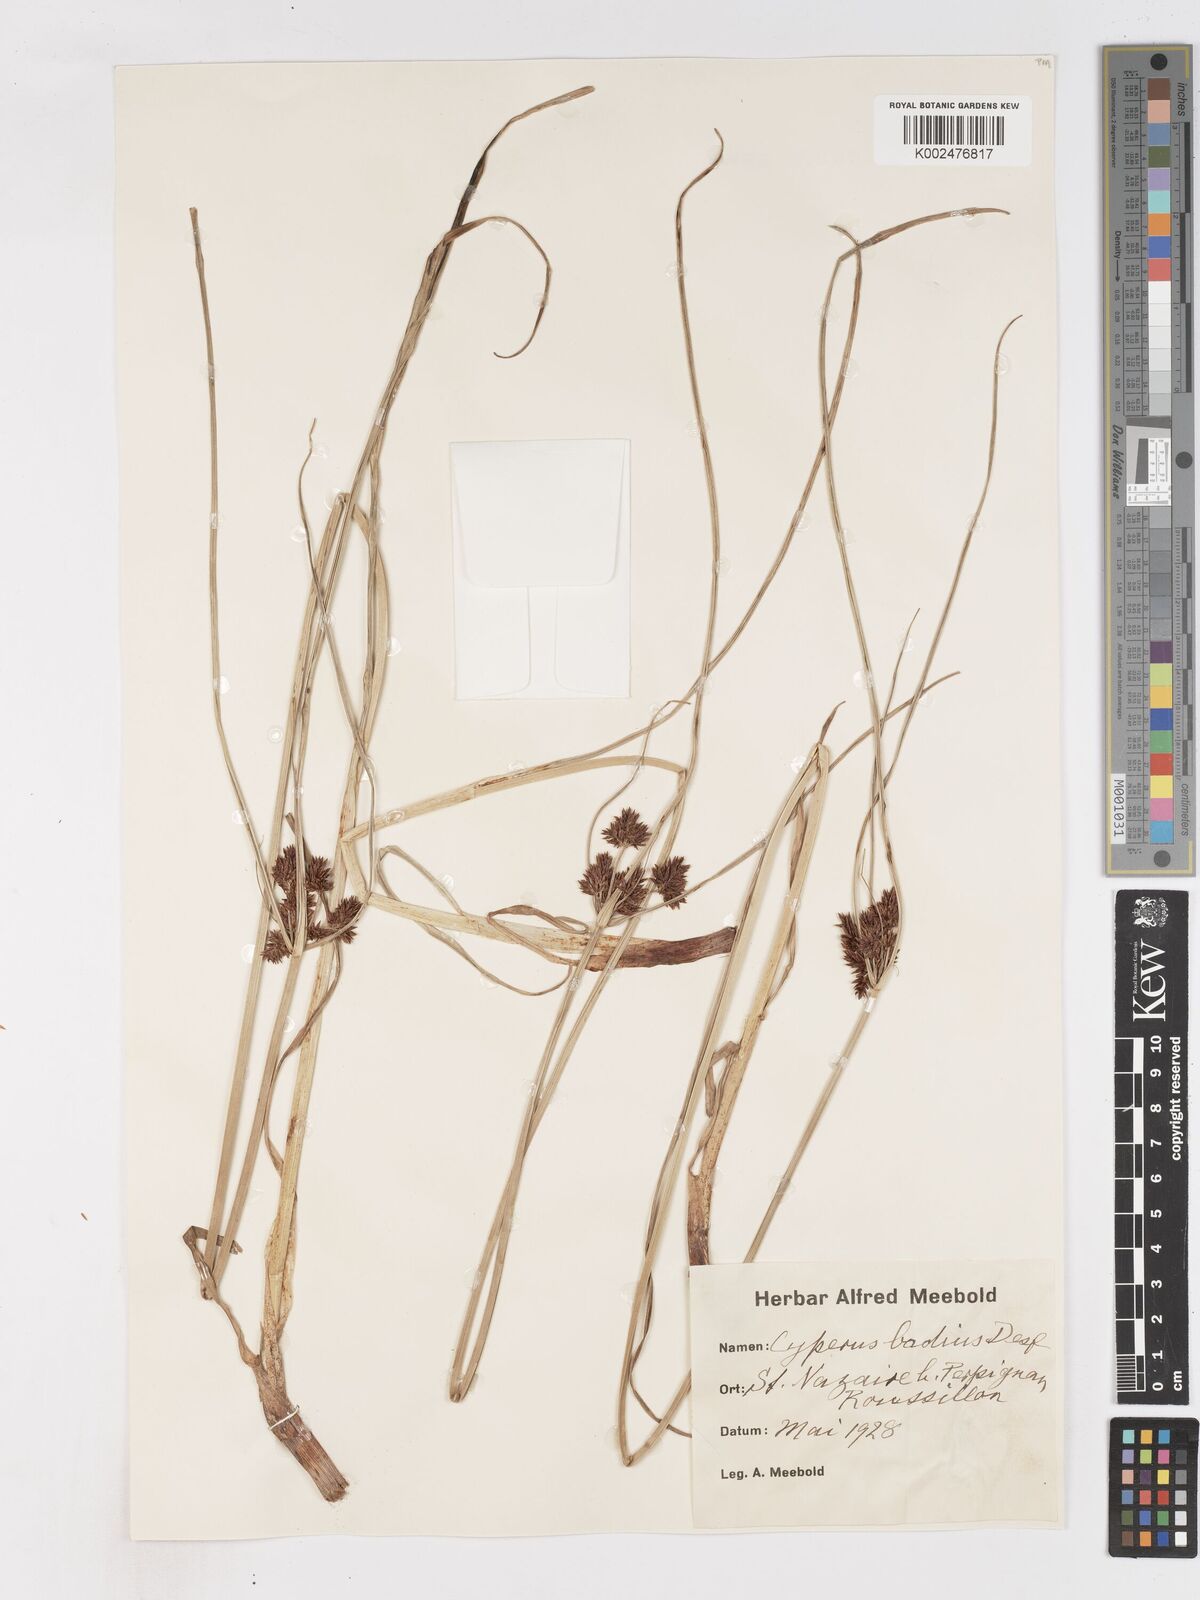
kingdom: Plantae
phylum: Tracheophyta
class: Liliopsida
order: Poales
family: Cyperaceae
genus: Cyperus
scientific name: Cyperus longus
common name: Galingale
